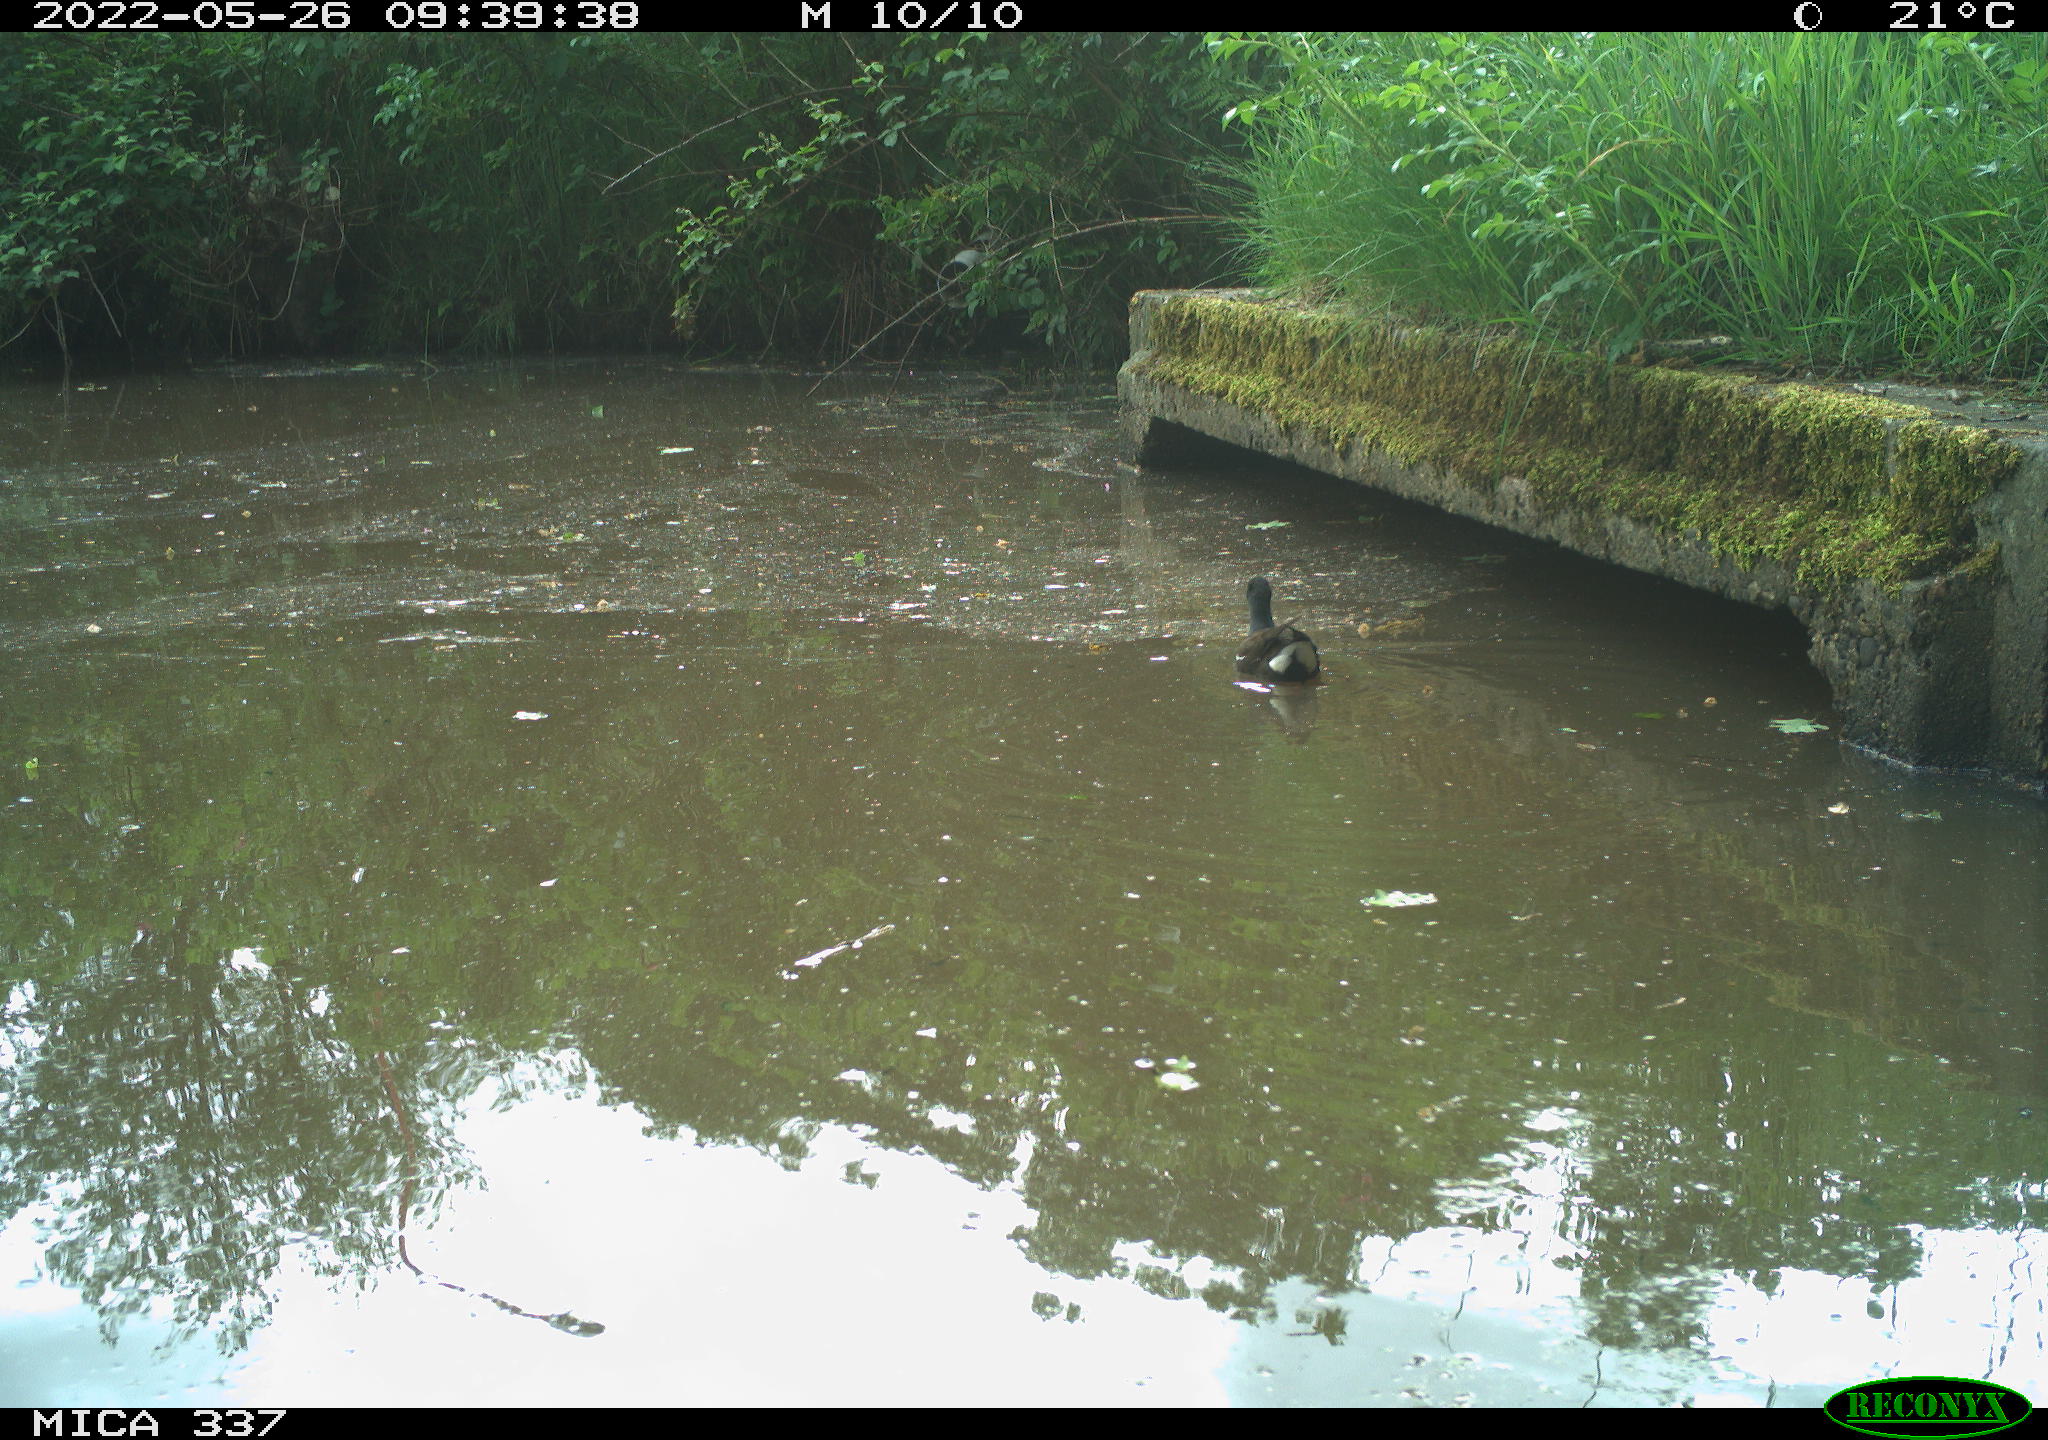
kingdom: Animalia
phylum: Chordata
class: Aves
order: Gruiformes
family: Rallidae
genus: Gallinula
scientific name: Gallinula chloropus
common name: Common moorhen
